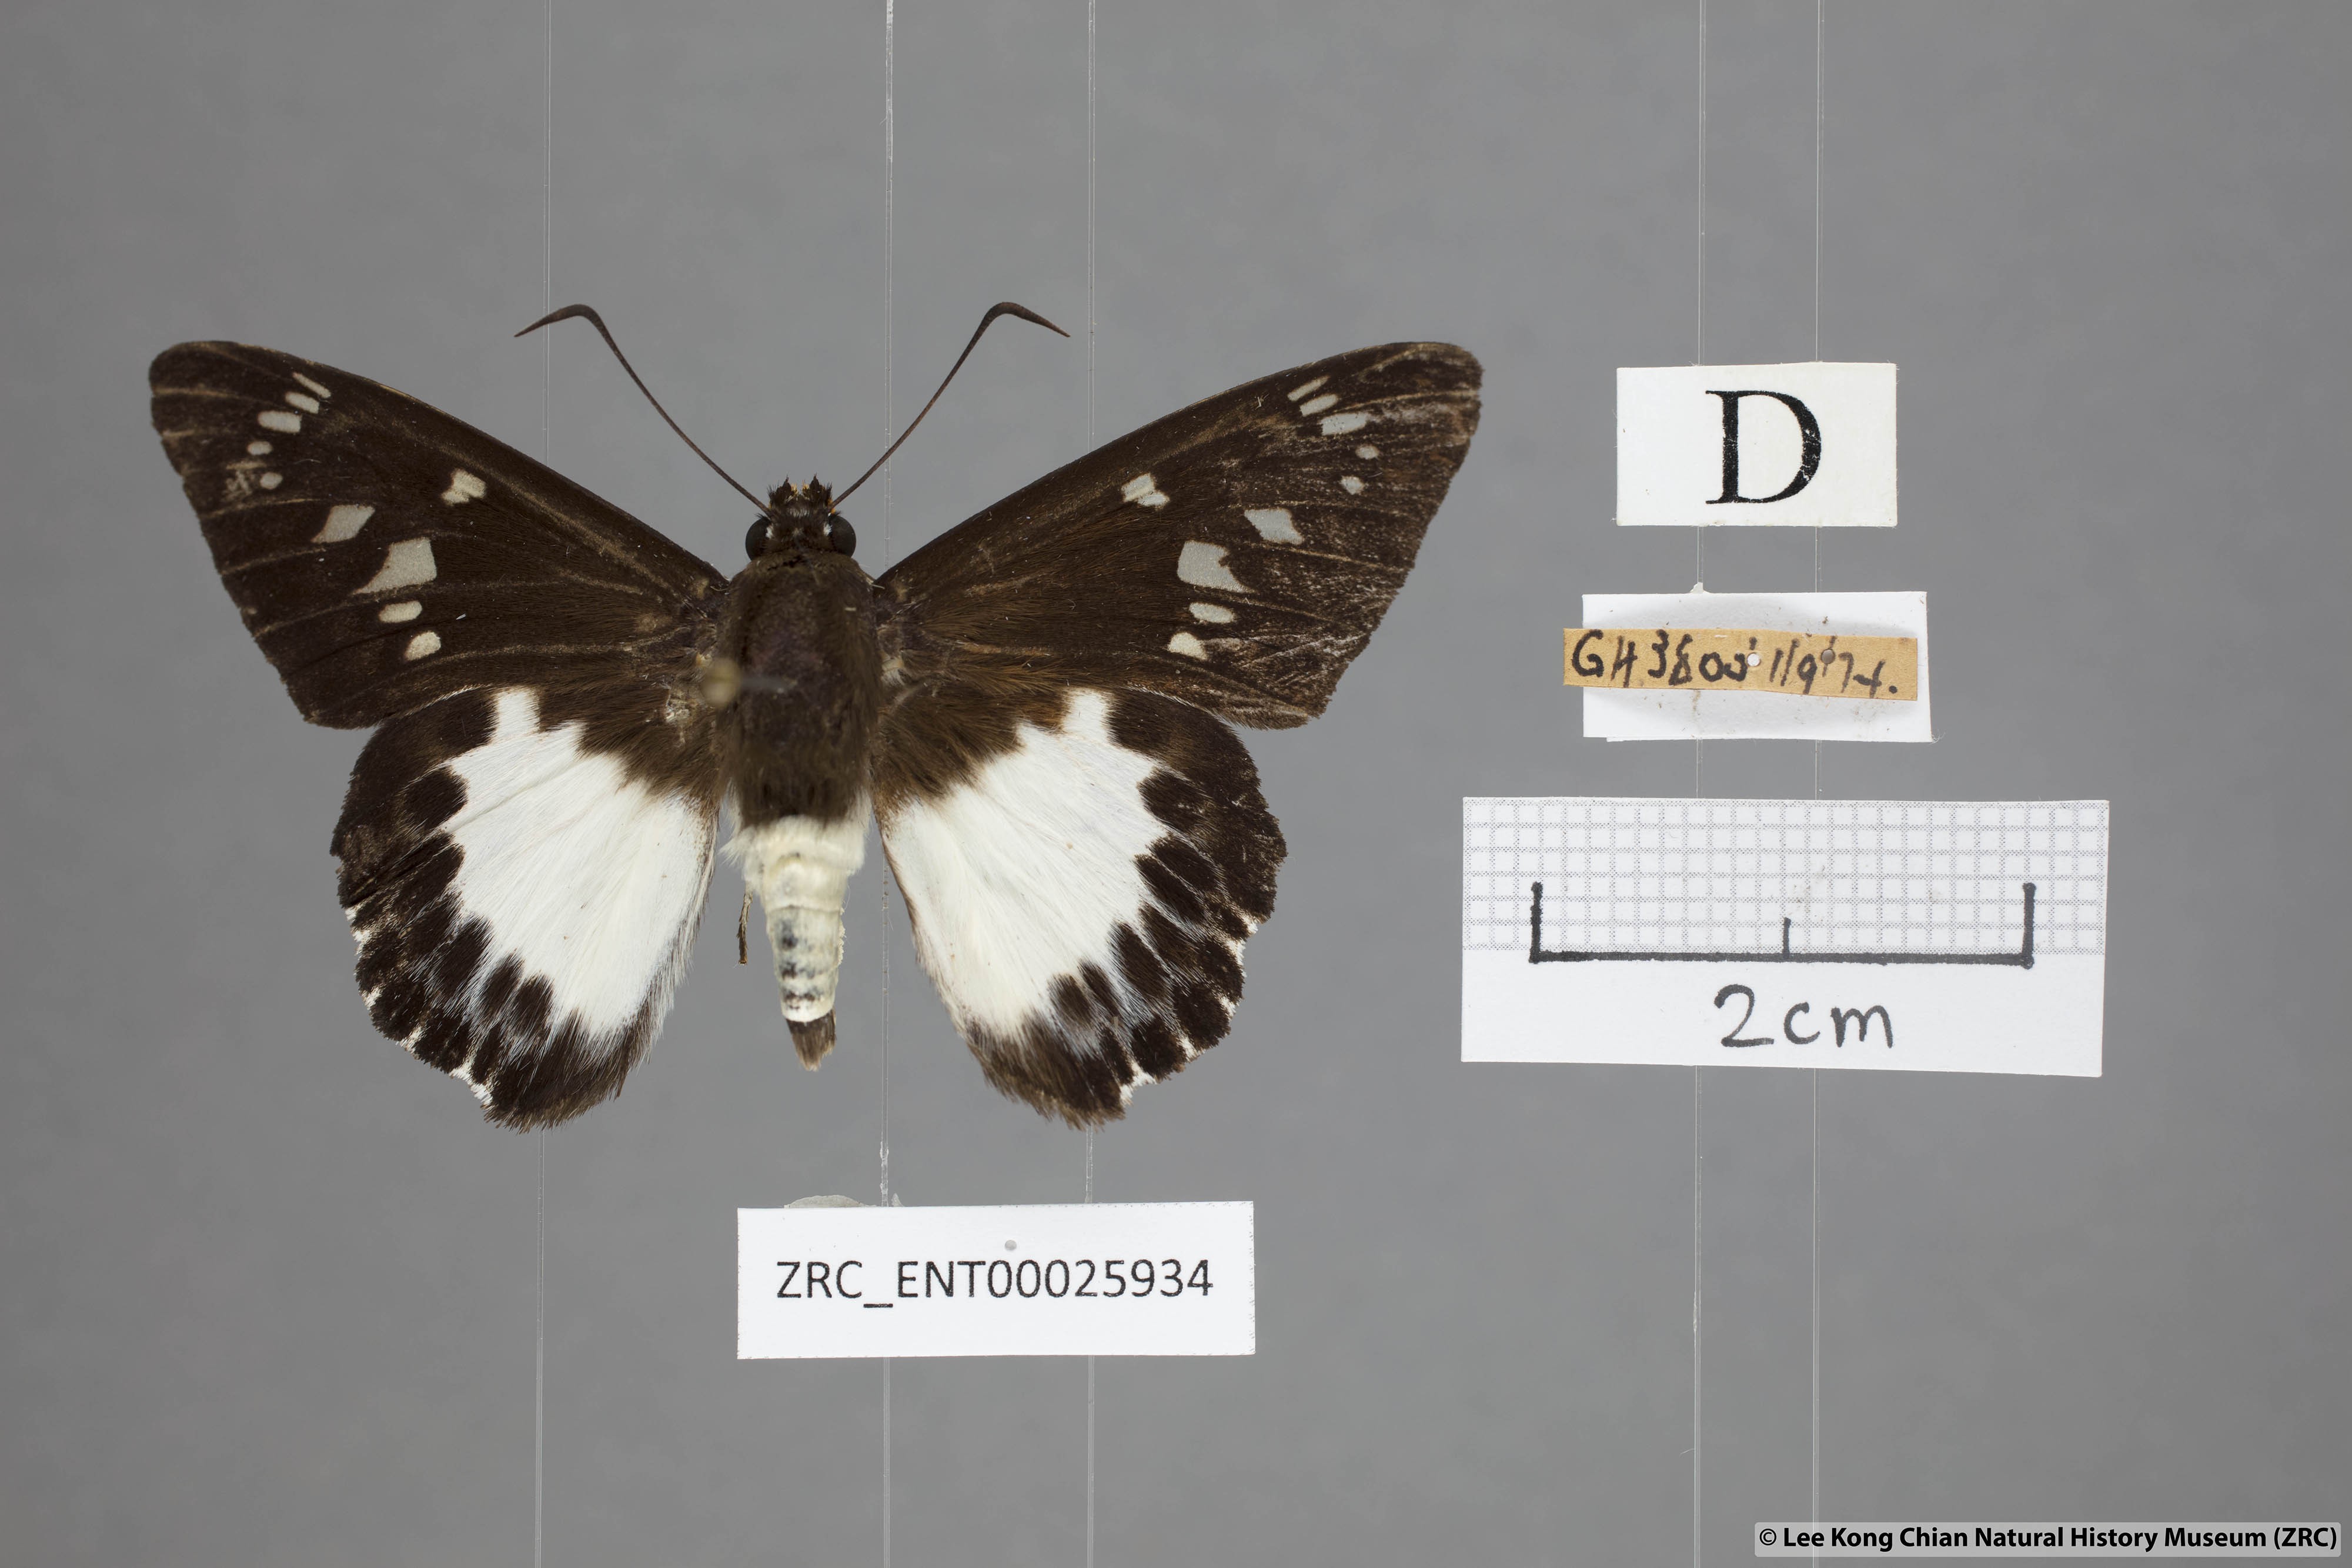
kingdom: Animalia
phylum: Arthropoda
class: Insecta
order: Lepidoptera
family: Hesperiidae
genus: Satarupa
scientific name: Satarupa gopala
